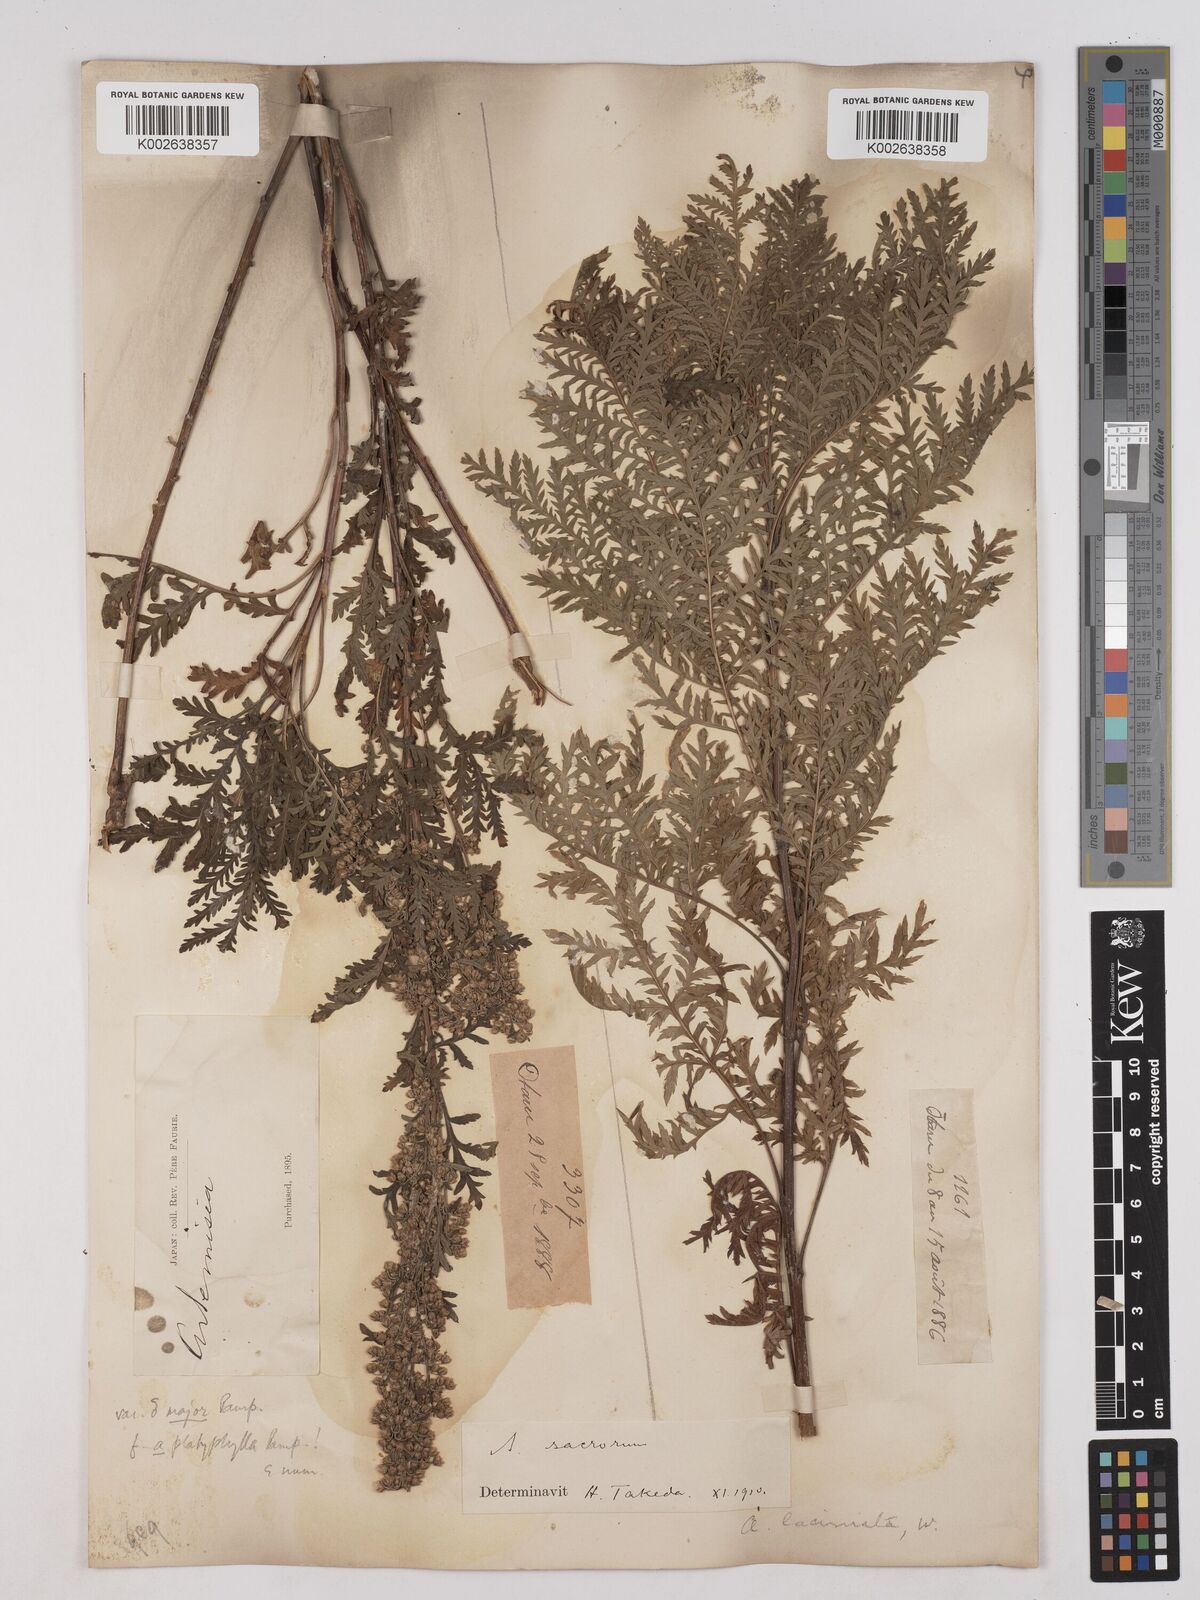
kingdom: Plantae
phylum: Tracheophyta
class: Magnoliopsida
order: Asterales
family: Asteraceae
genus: Artemisia
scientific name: Artemisia gmelinii
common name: Gmelin's wormwood
